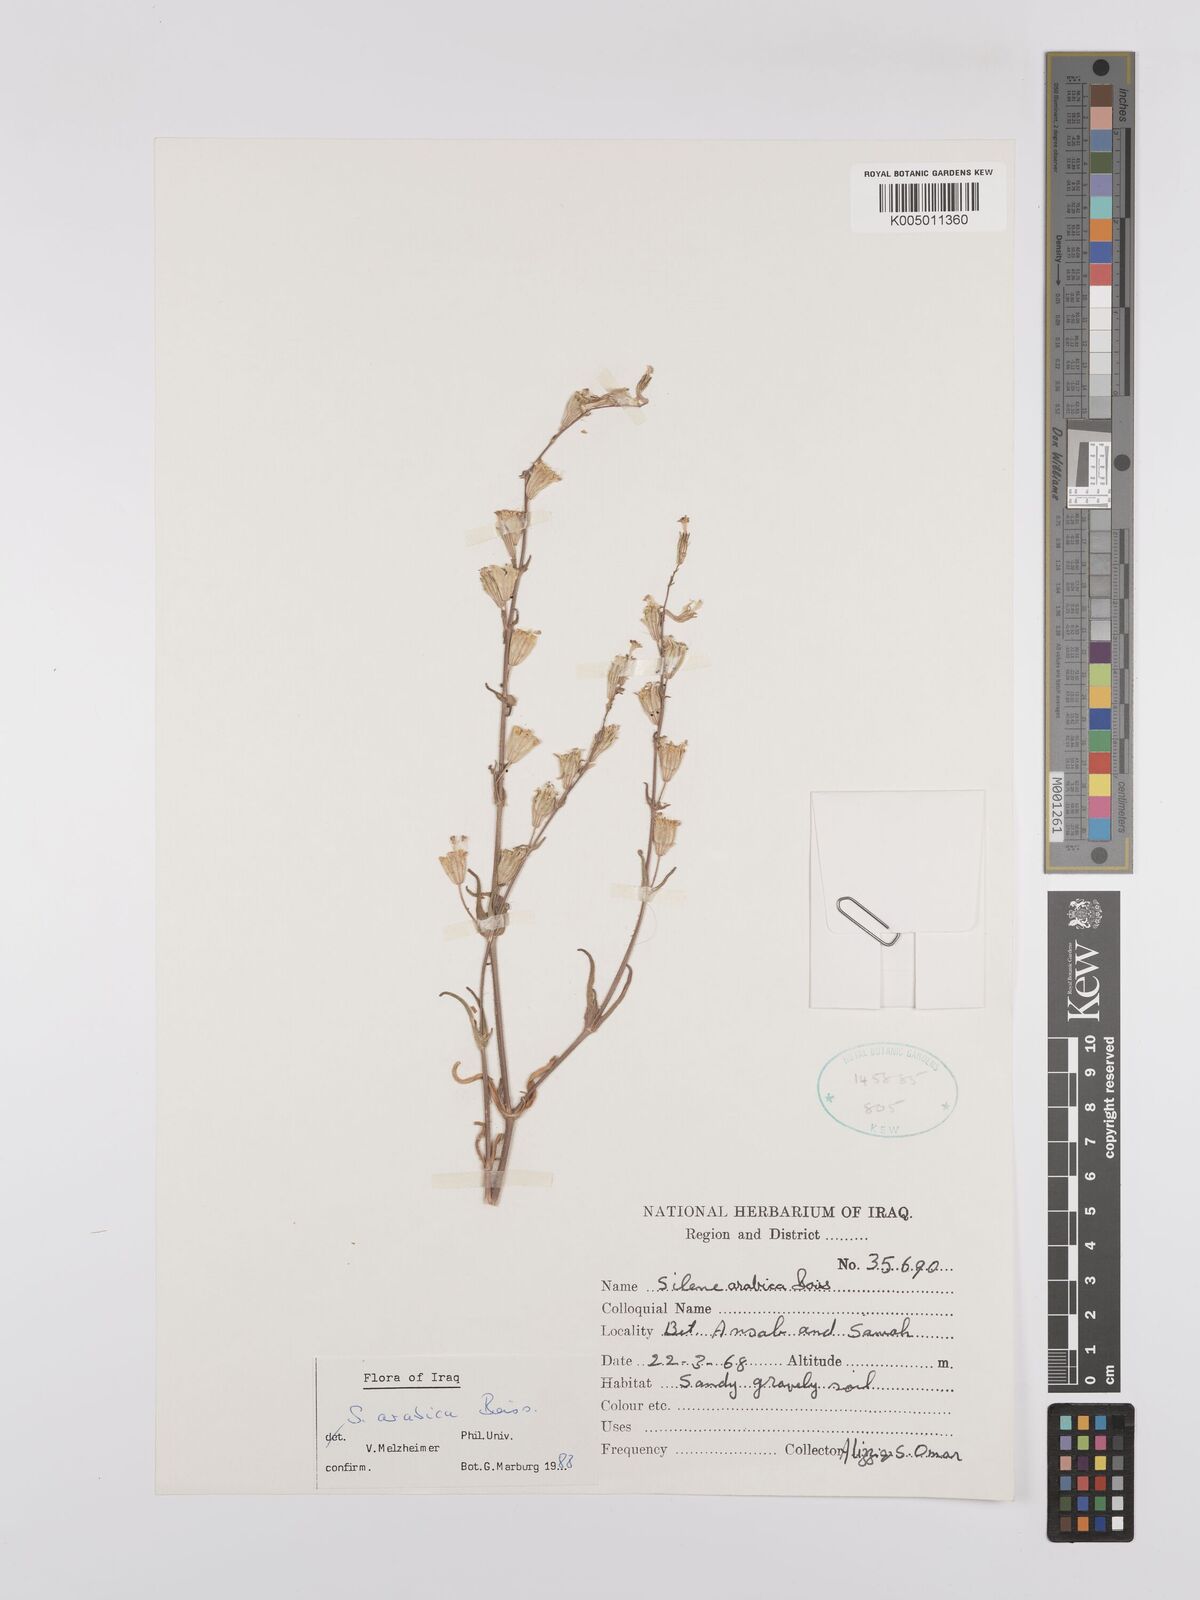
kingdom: Plantae
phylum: Tracheophyta
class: Magnoliopsida
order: Caryophyllales
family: Caryophyllaceae
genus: Silene
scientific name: Silene arabica
